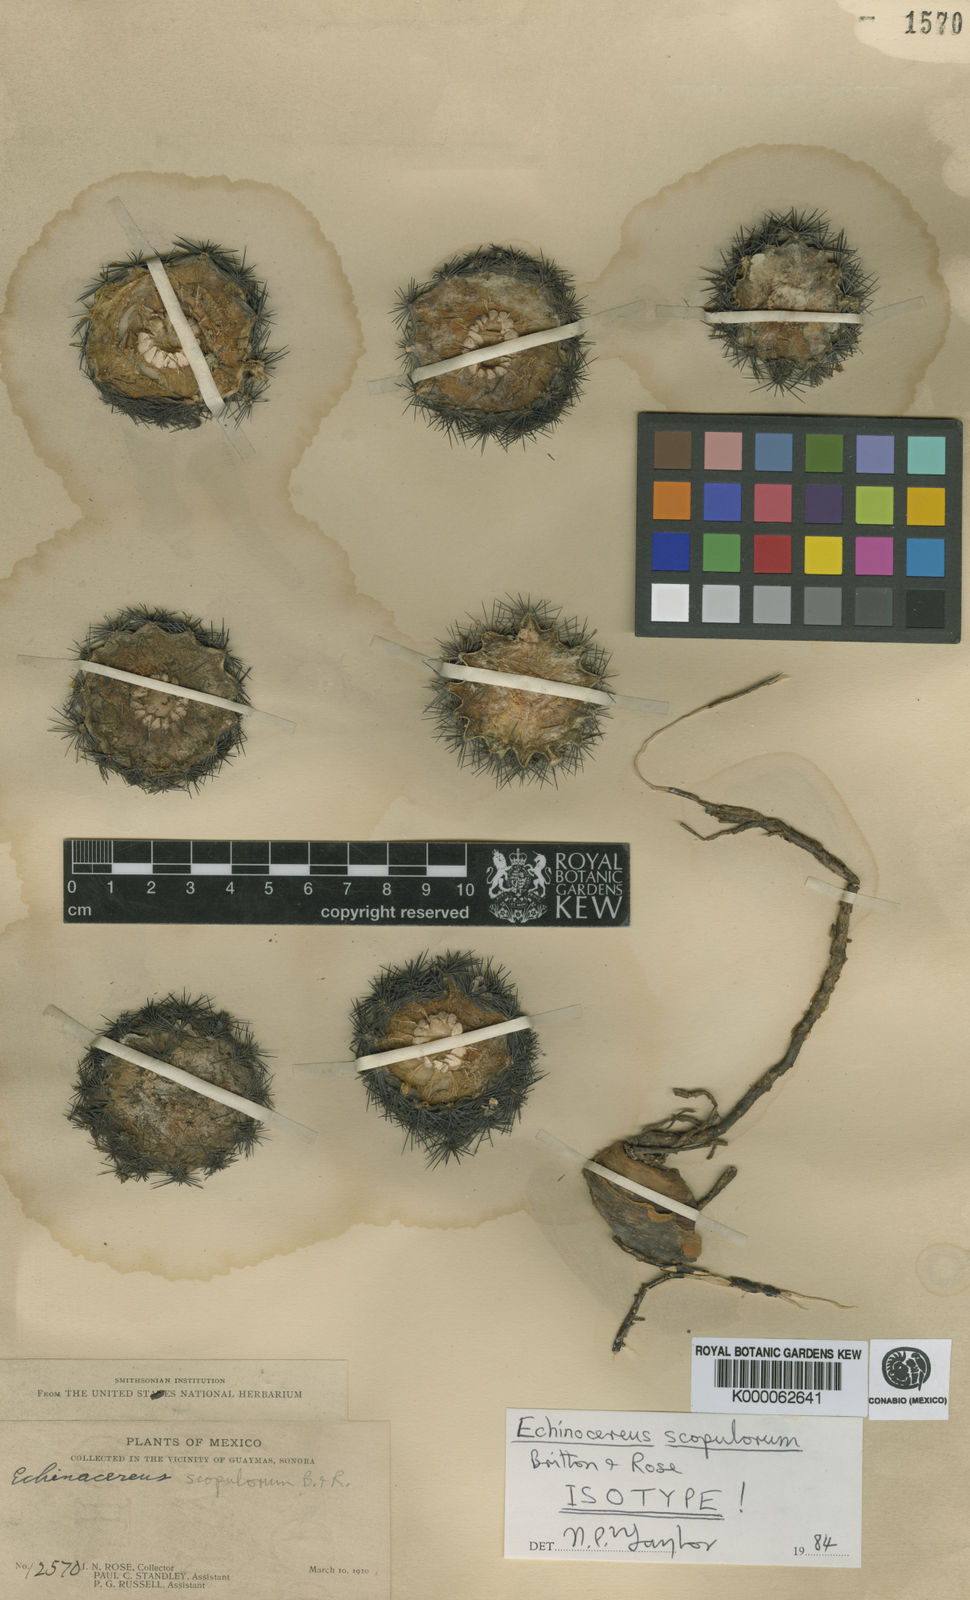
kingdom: Plantae
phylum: Tracheophyta
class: Magnoliopsida
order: Caryophyllales
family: Cactaceae
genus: Echinocereus
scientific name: Echinocereus scopulorum
